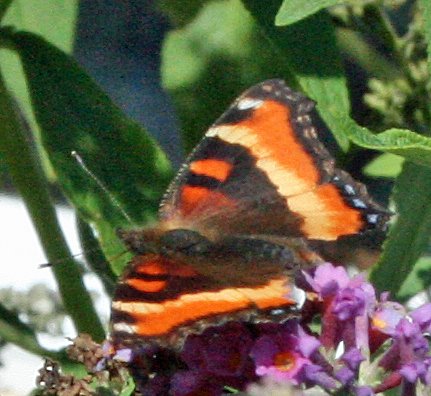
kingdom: Animalia
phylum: Arthropoda
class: Insecta
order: Lepidoptera
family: Nymphalidae
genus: Aglais
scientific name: Aglais milberti
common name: Milbert's Tortoiseshell
